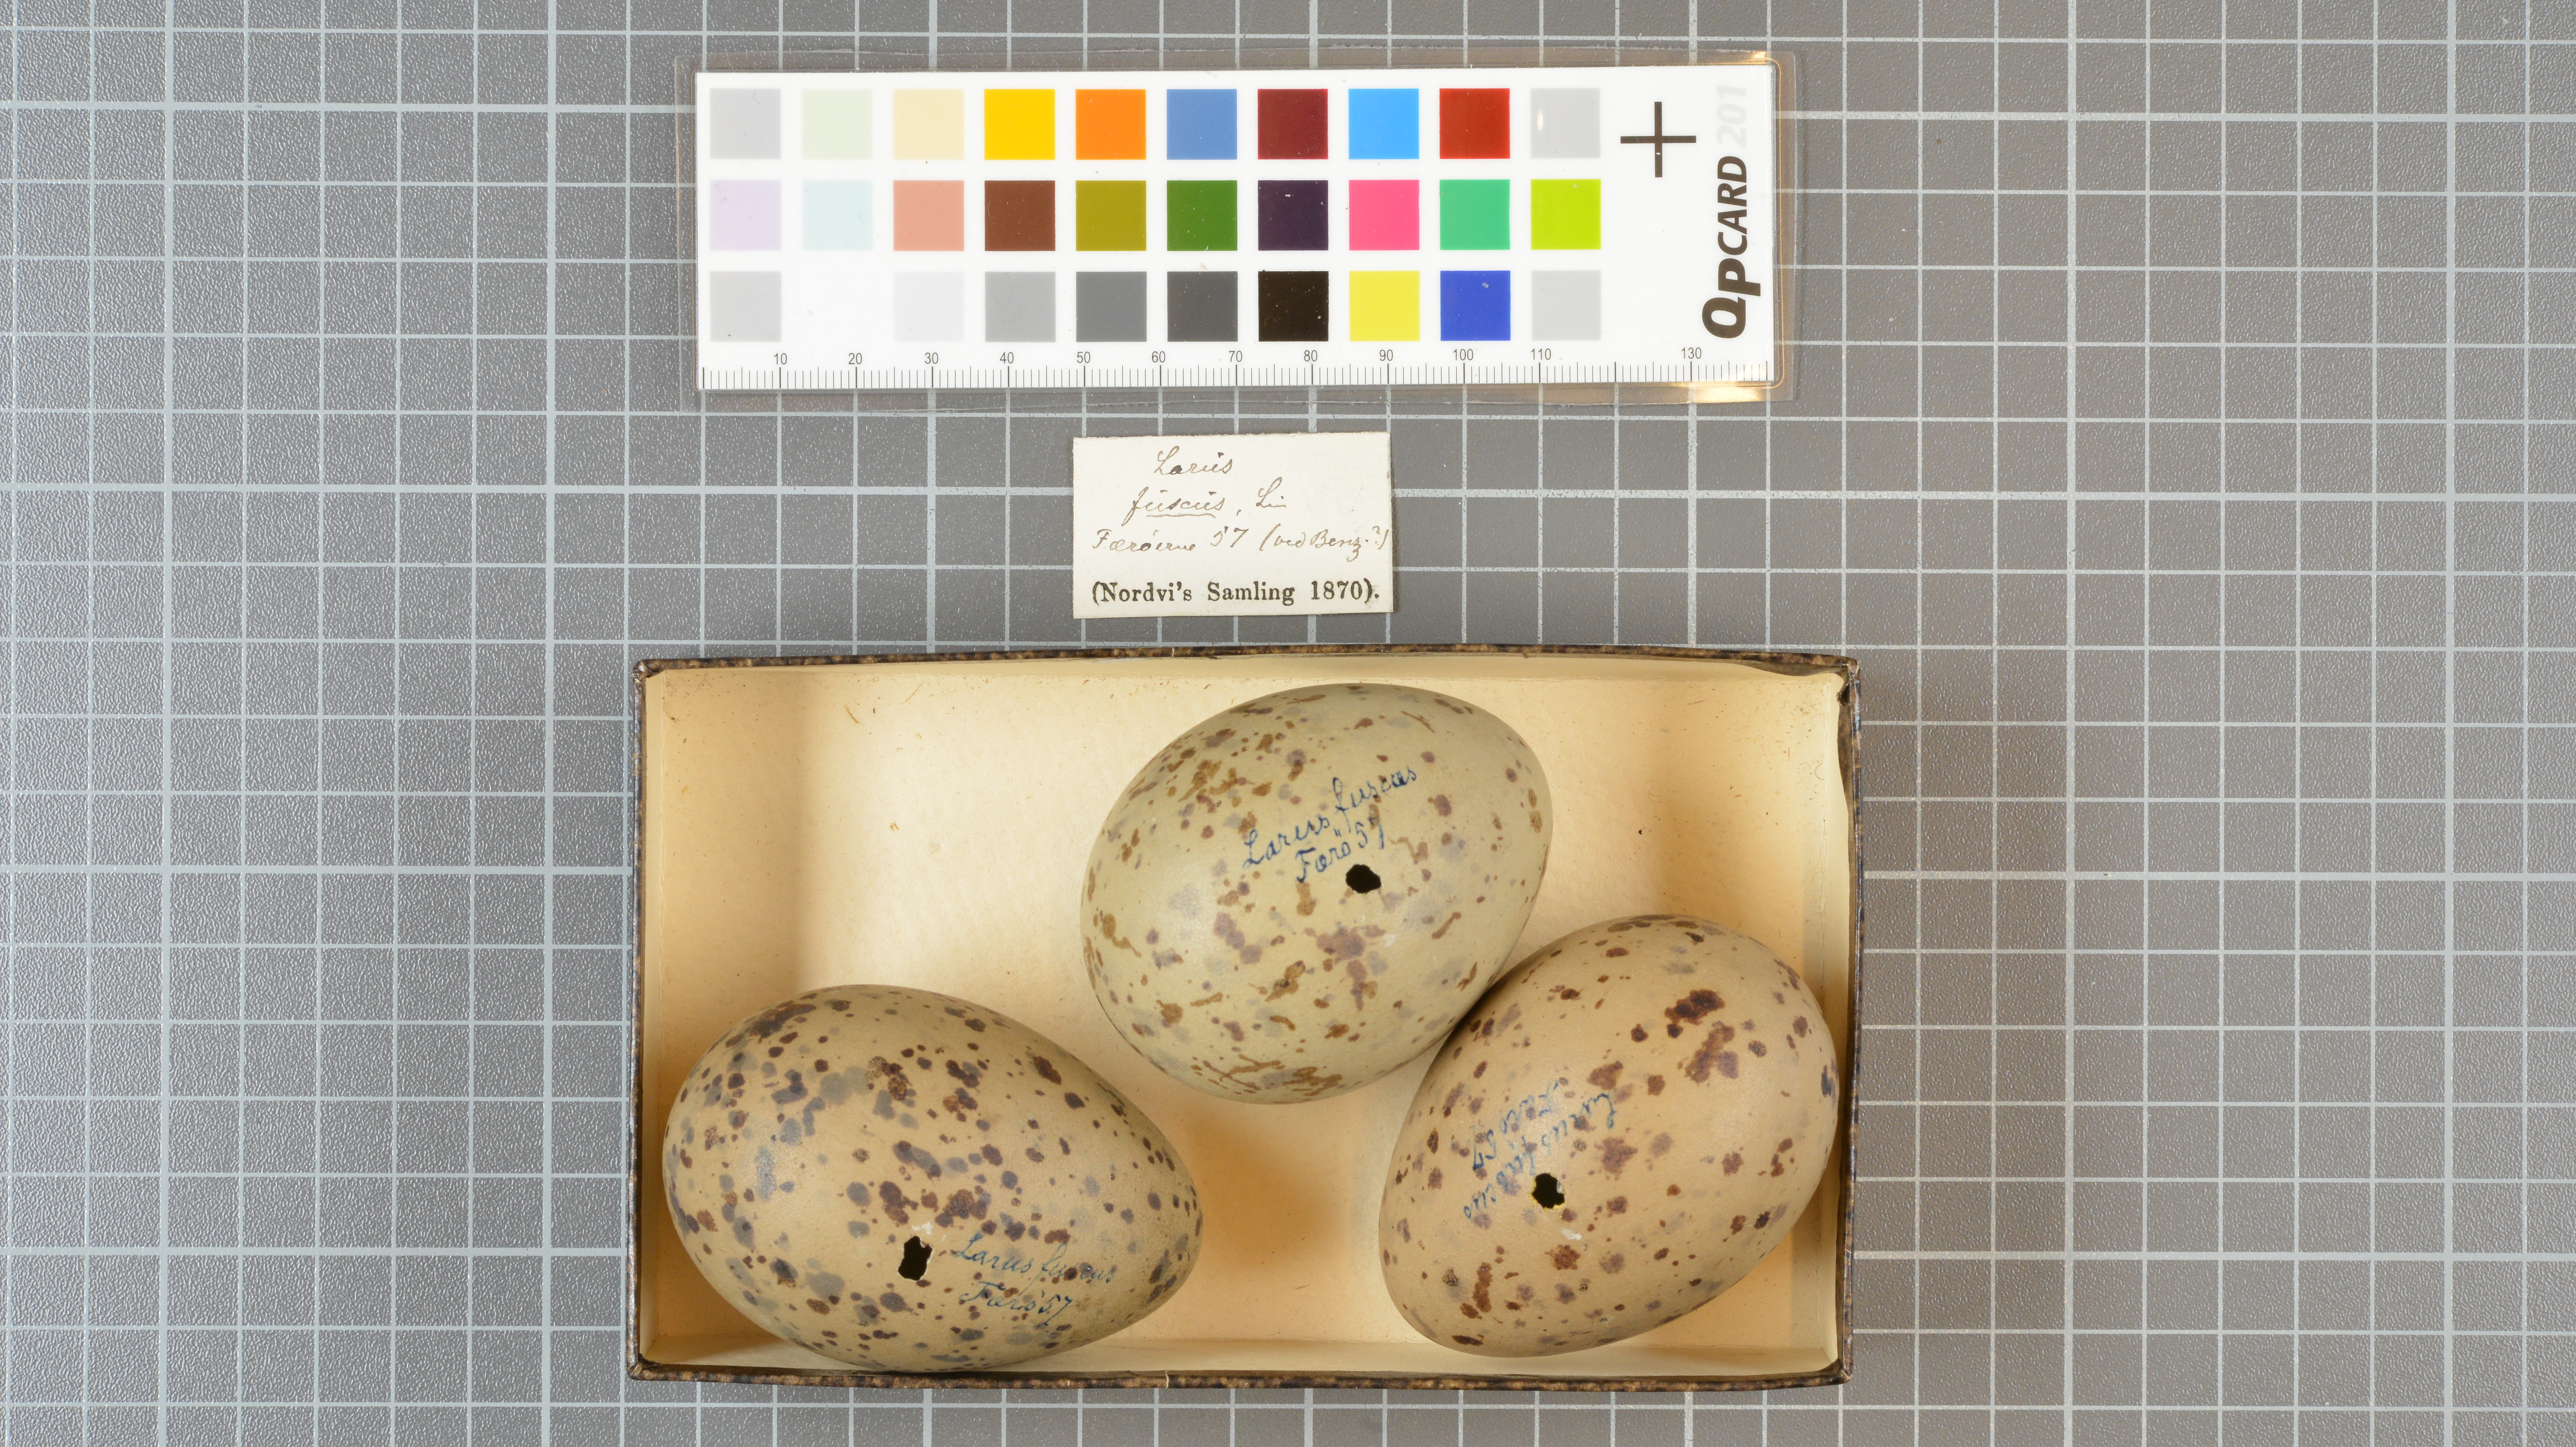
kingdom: Animalia
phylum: Chordata
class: Aves
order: Charadriiformes
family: Laridae
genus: Larus
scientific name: Larus fuscus
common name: Lesser black-backed gull
